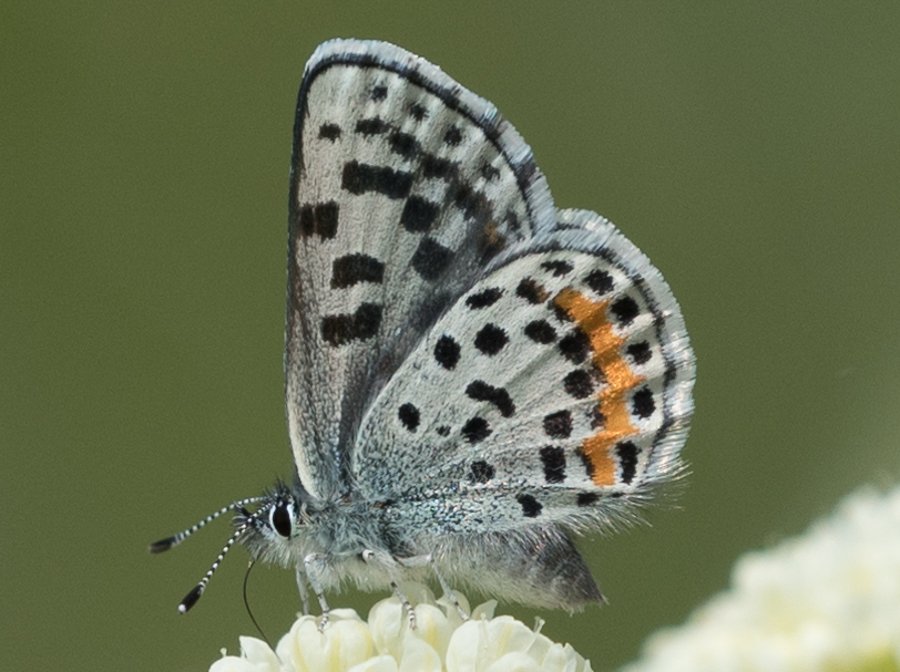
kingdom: Animalia
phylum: Arthropoda
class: Insecta
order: Lepidoptera
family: Lycaenidae
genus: Euphilotes
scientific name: Euphilotes battoides
